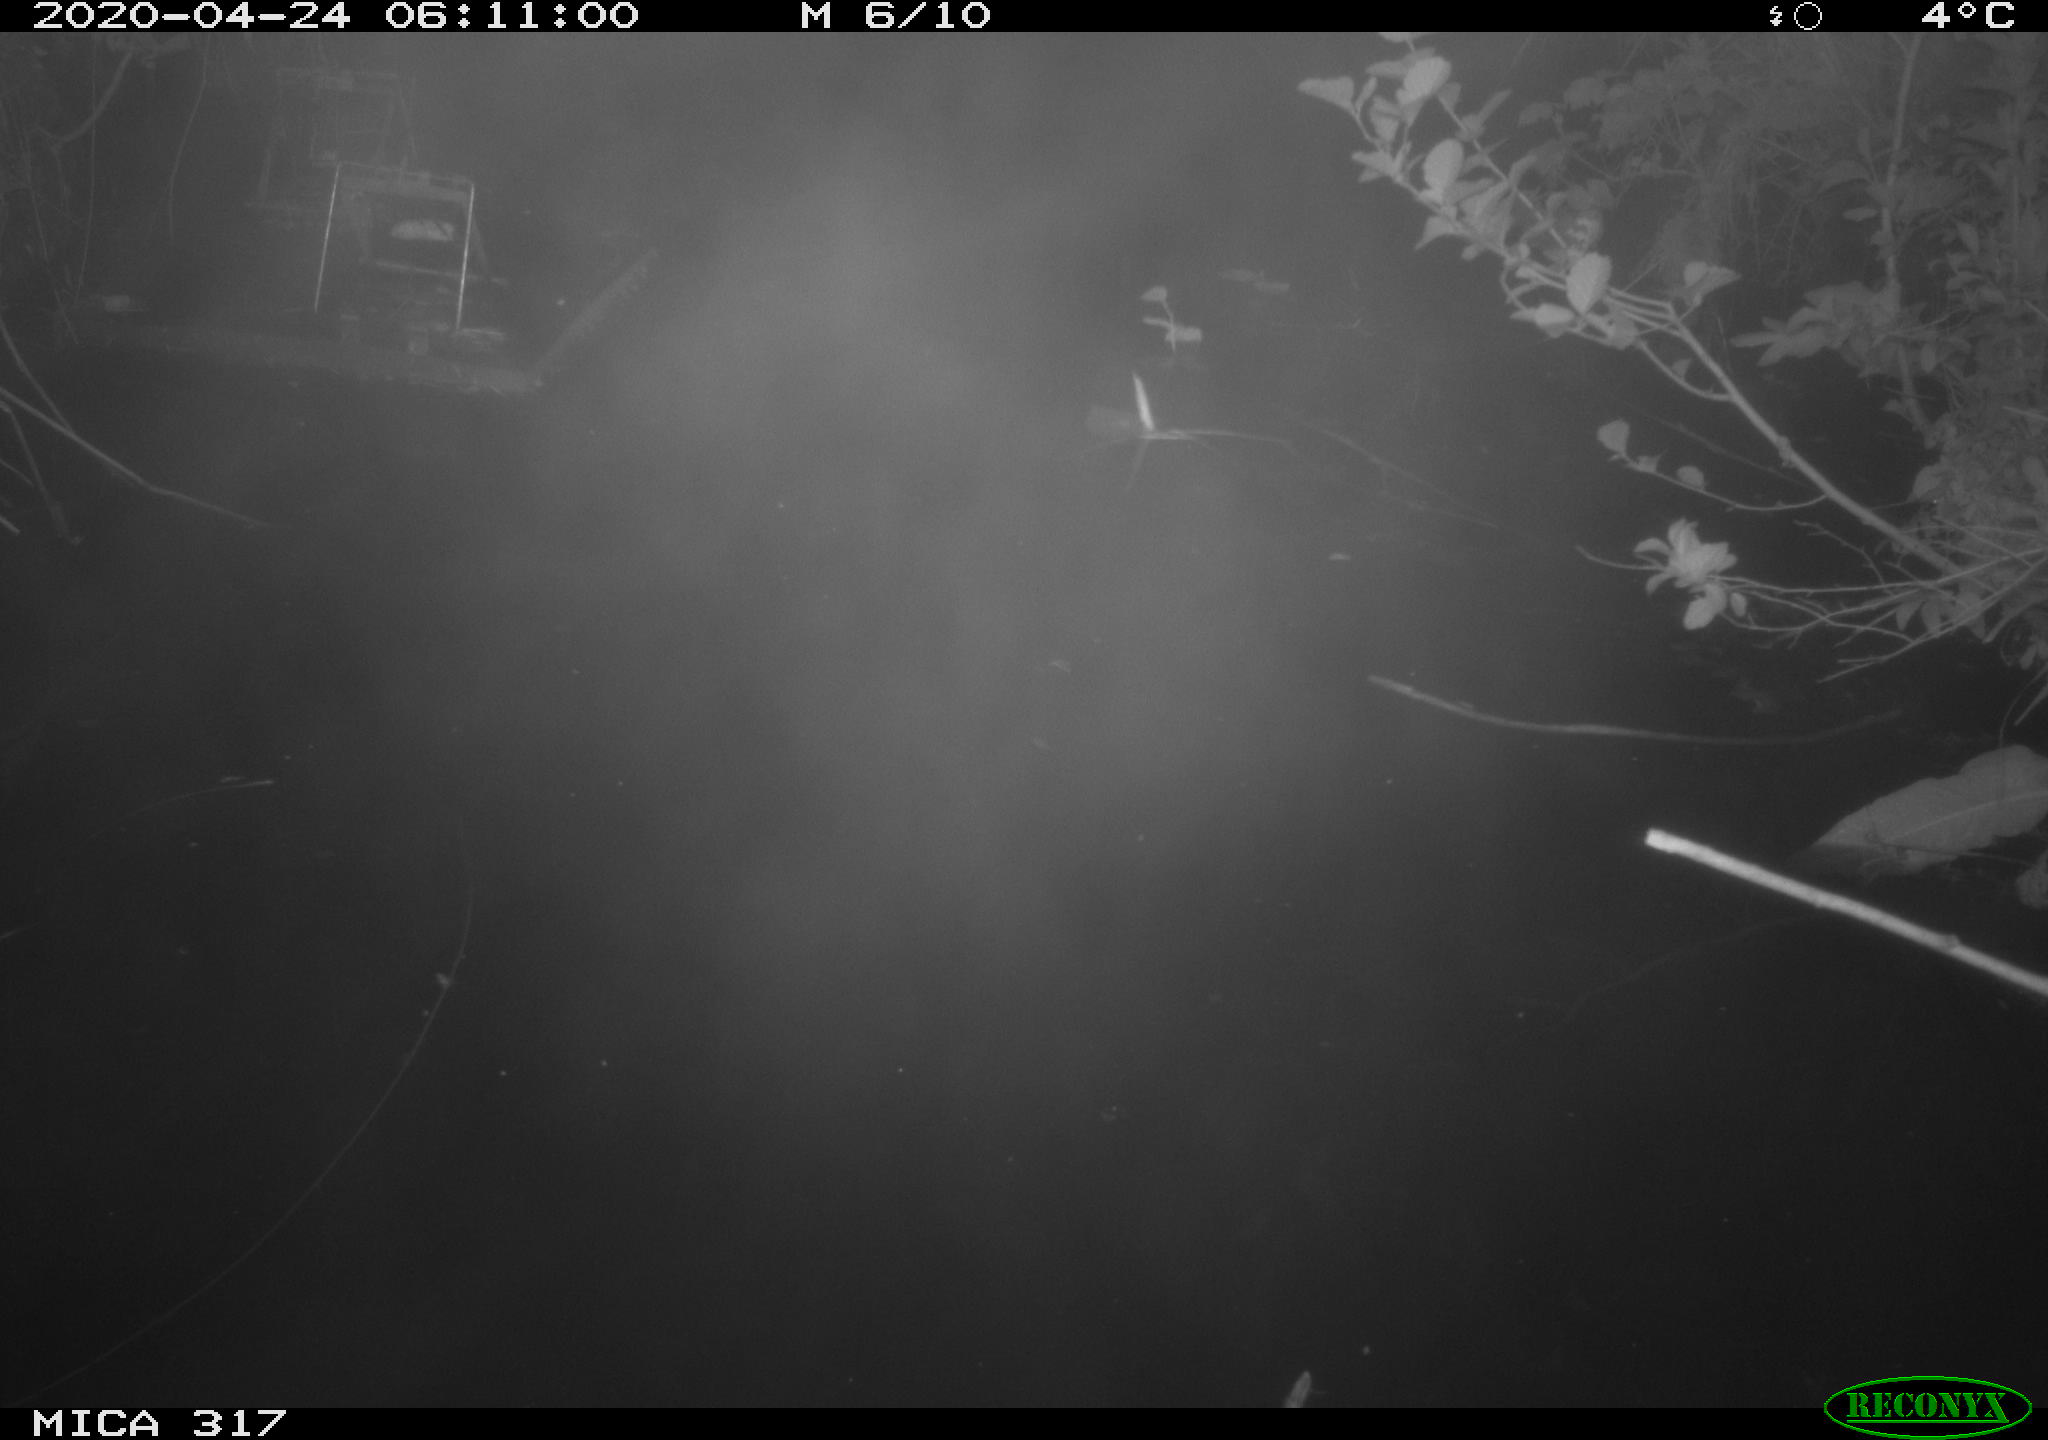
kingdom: Animalia
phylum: Chordata
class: Aves
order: Anseriformes
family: Anatidae
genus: Anas
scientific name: Anas platyrhynchos
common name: Mallard
